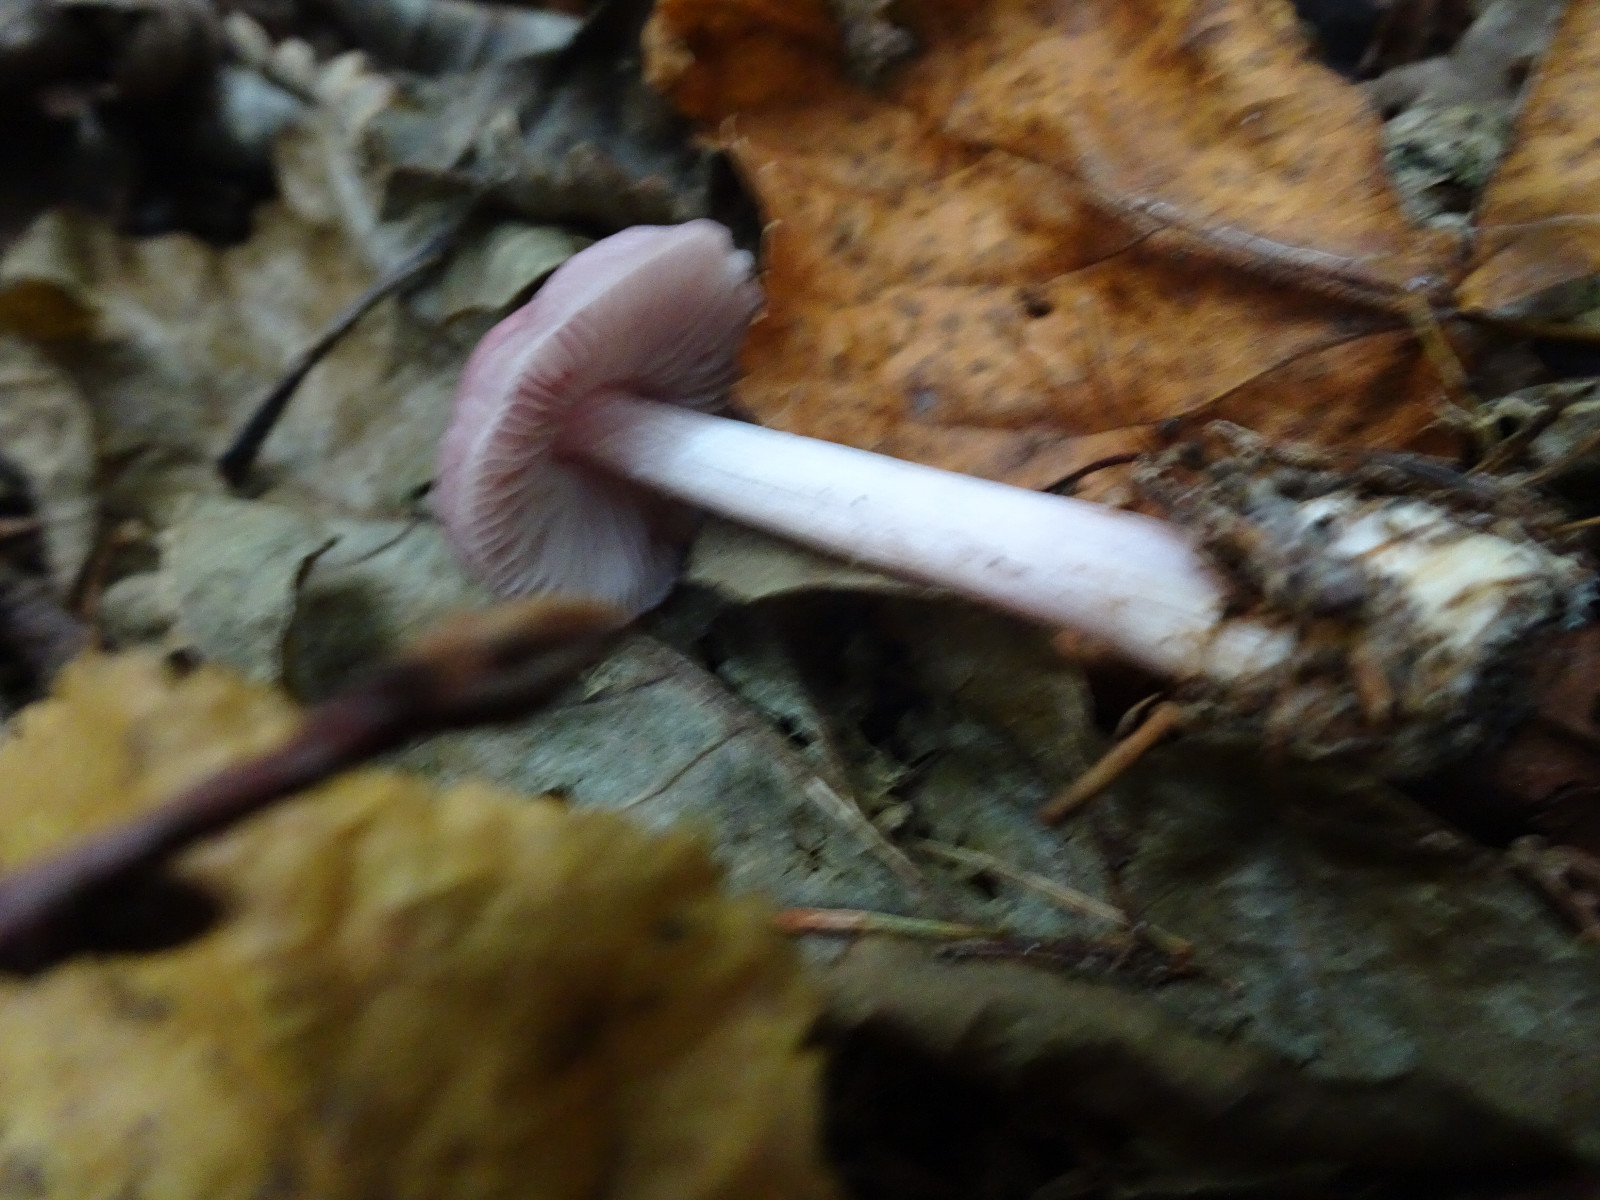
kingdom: Fungi
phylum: Basidiomycota
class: Agaricomycetes
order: Agaricales
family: Mycenaceae
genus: Mycena
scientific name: Mycena rosea
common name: rosa huesvamp
